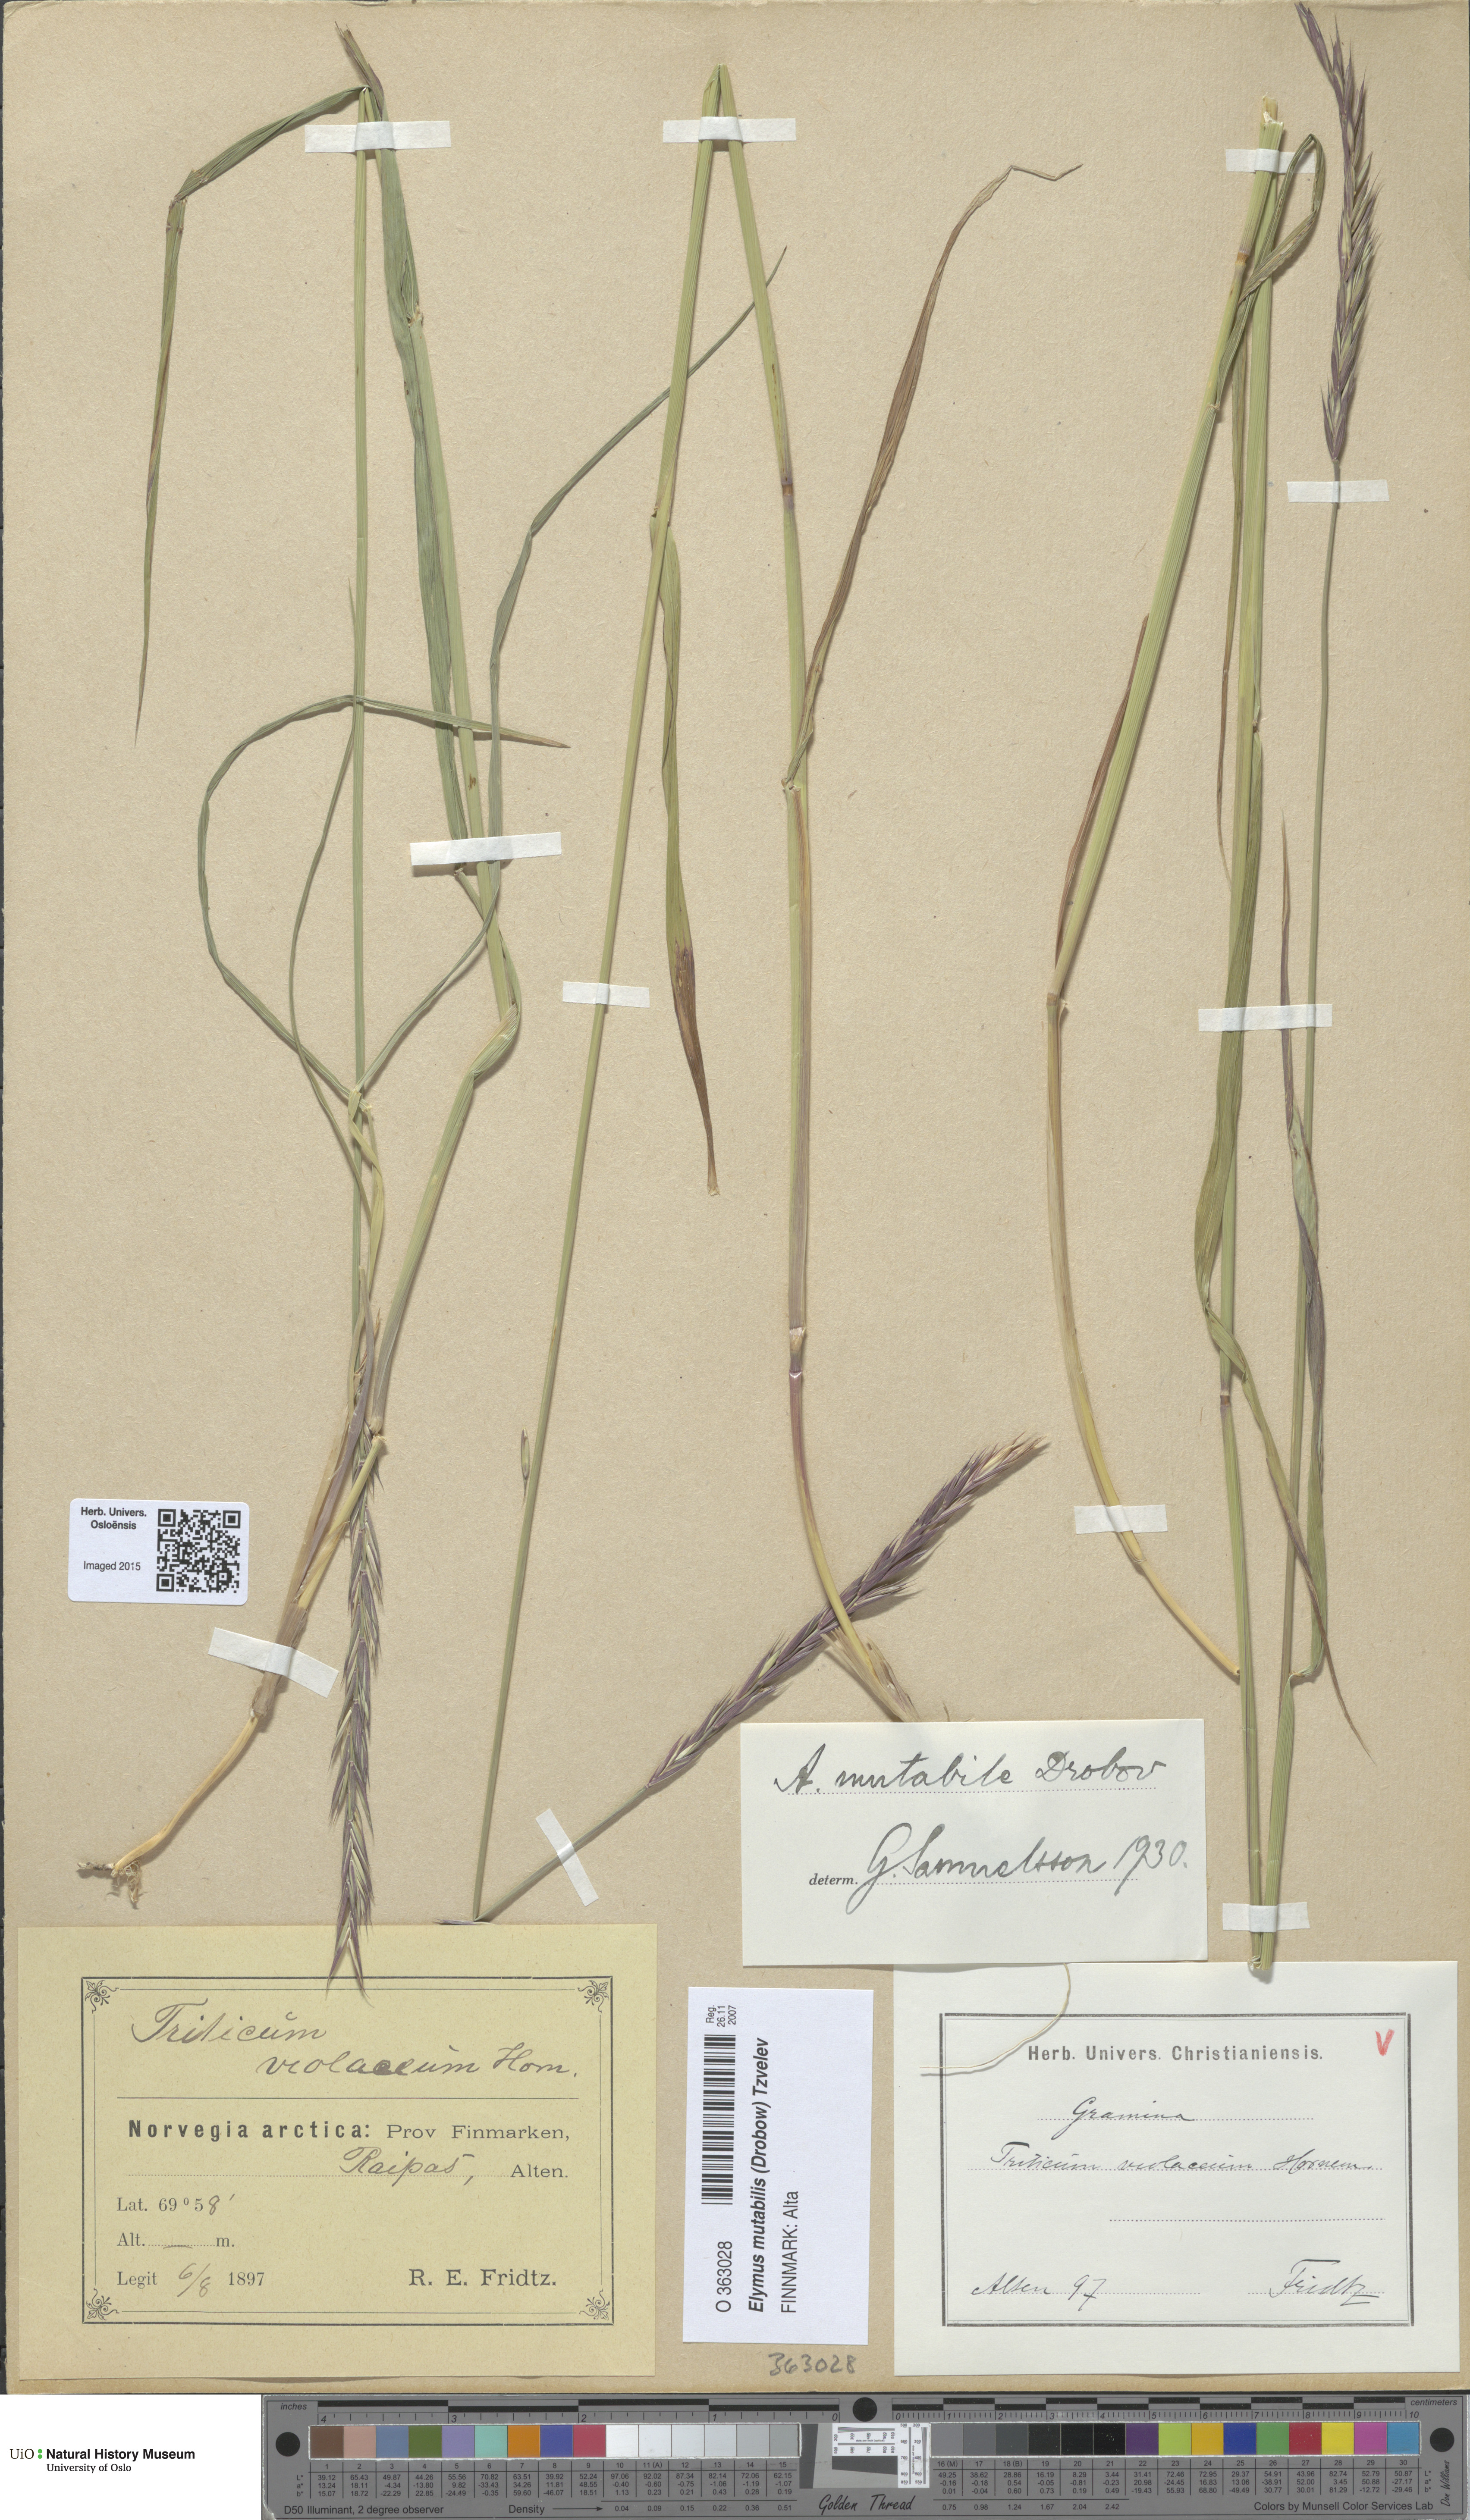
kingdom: Plantae
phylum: Tracheophyta
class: Liliopsida
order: Poales
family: Poaceae
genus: Elymus
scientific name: Elymus mutabilis
